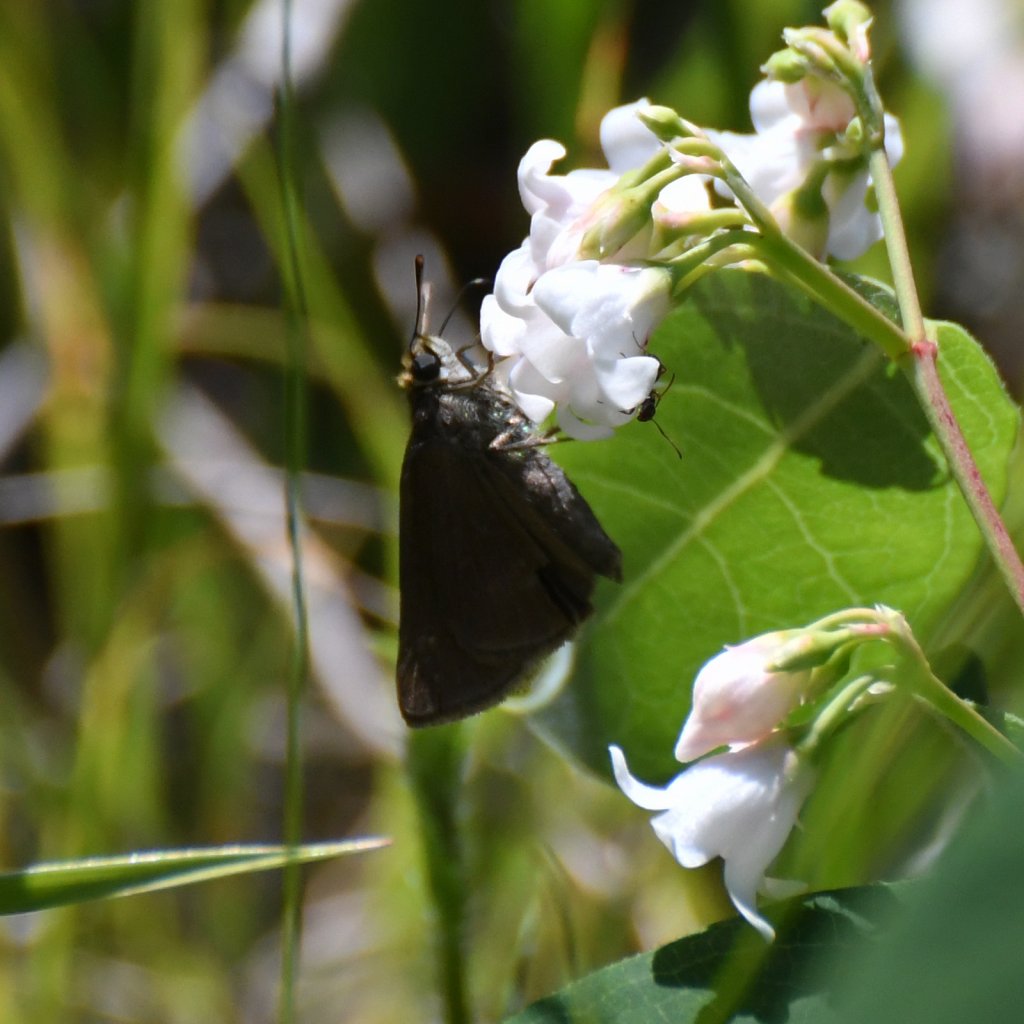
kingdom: Animalia
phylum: Arthropoda
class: Insecta
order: Lepidoptera
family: Hesperiidae
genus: Euphyes
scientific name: Euphyes vestris
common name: Dun Skipper
